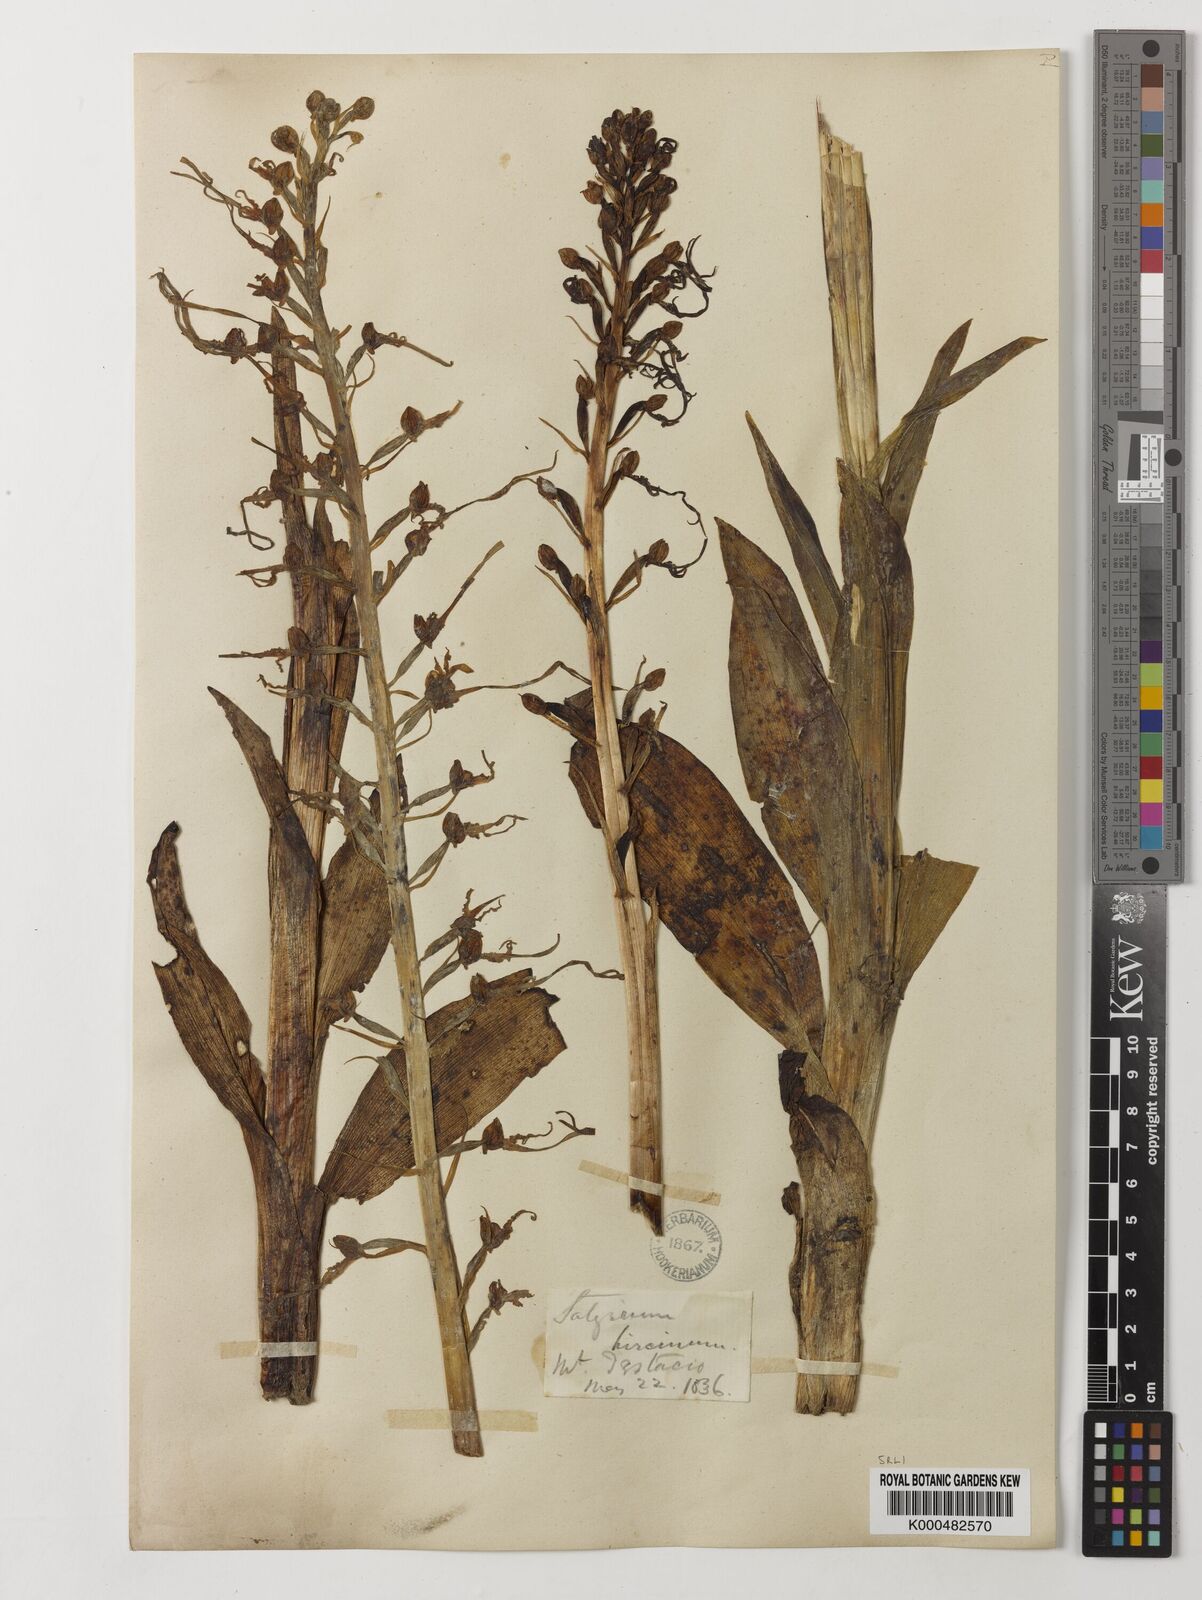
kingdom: Plantae
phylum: Tracheophyta
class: Liliopsida
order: Asparagales
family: Orchidaceae
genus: Himantoglossum
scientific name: Himantoglossum adriaticum
